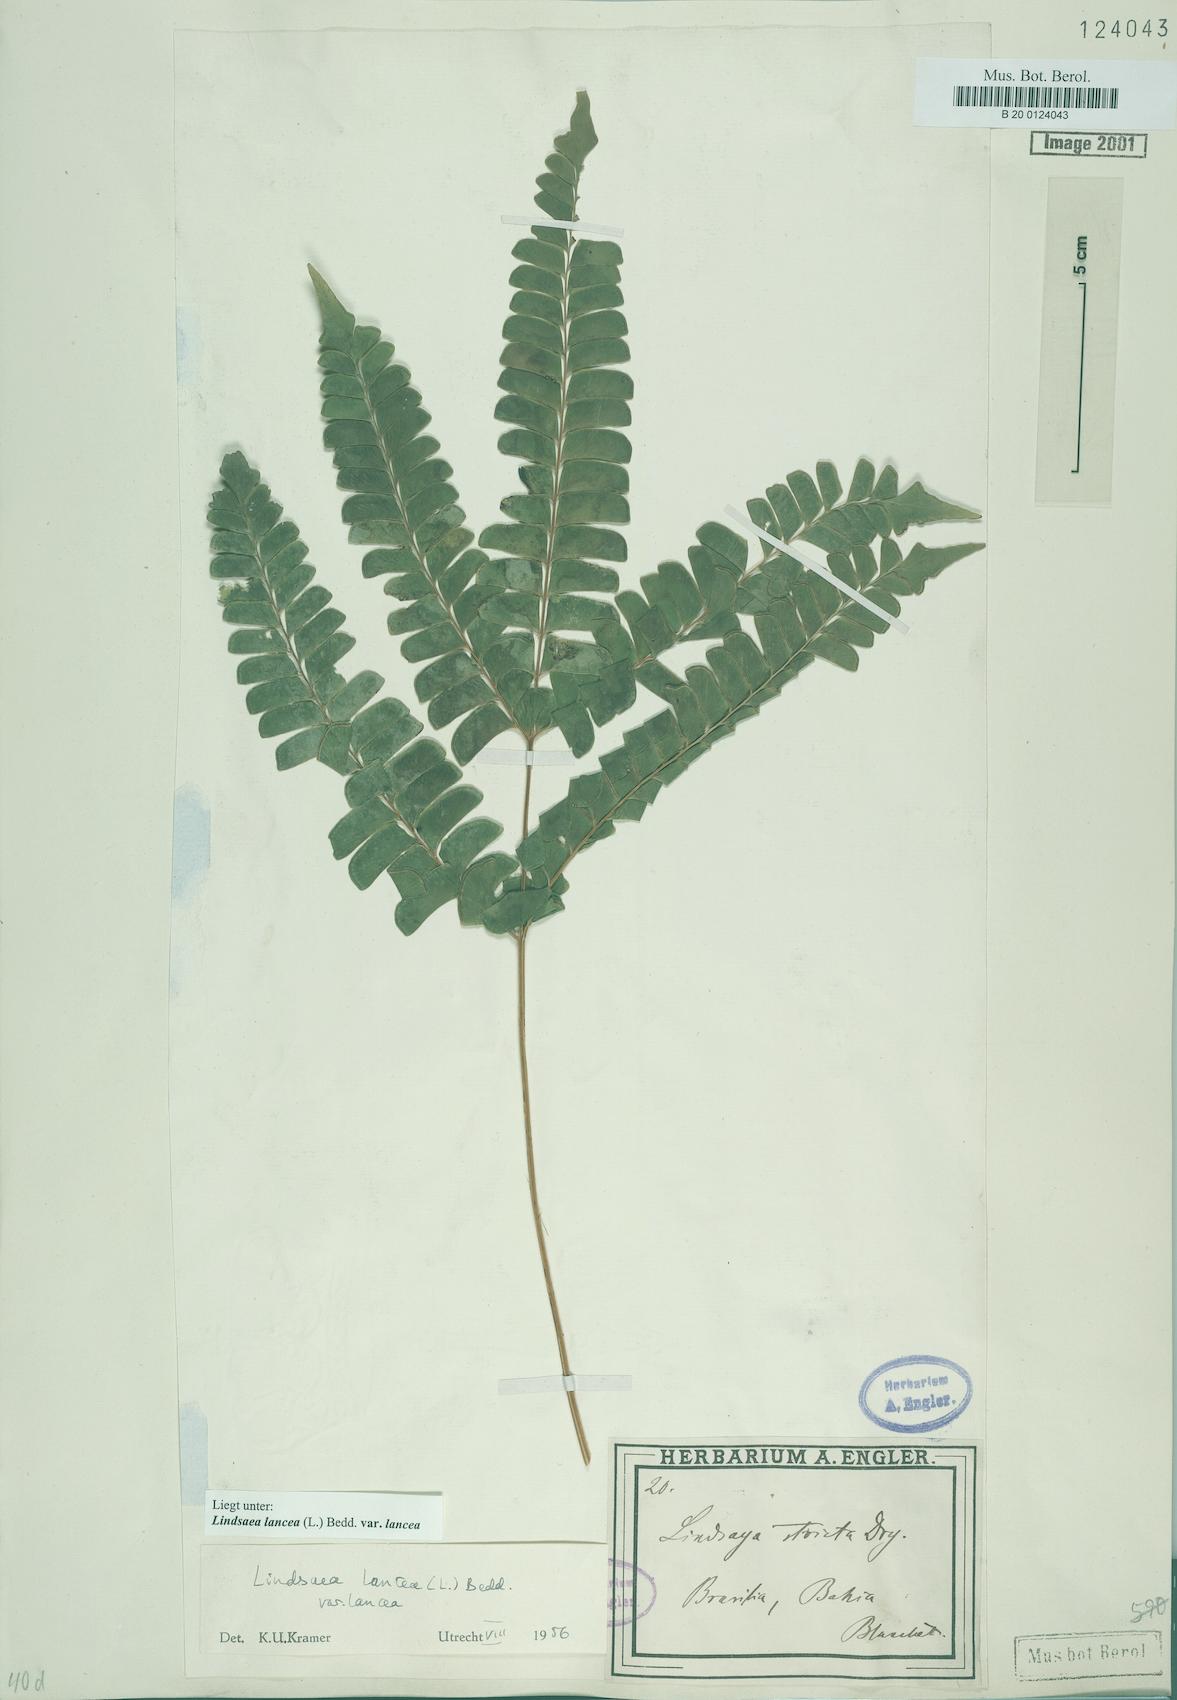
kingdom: Plantae
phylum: Tracheophyta
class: Polypodiopsida
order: Polypodiales
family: Lindsaeaceae
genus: Lindsaea
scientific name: Lindsaea lancea
